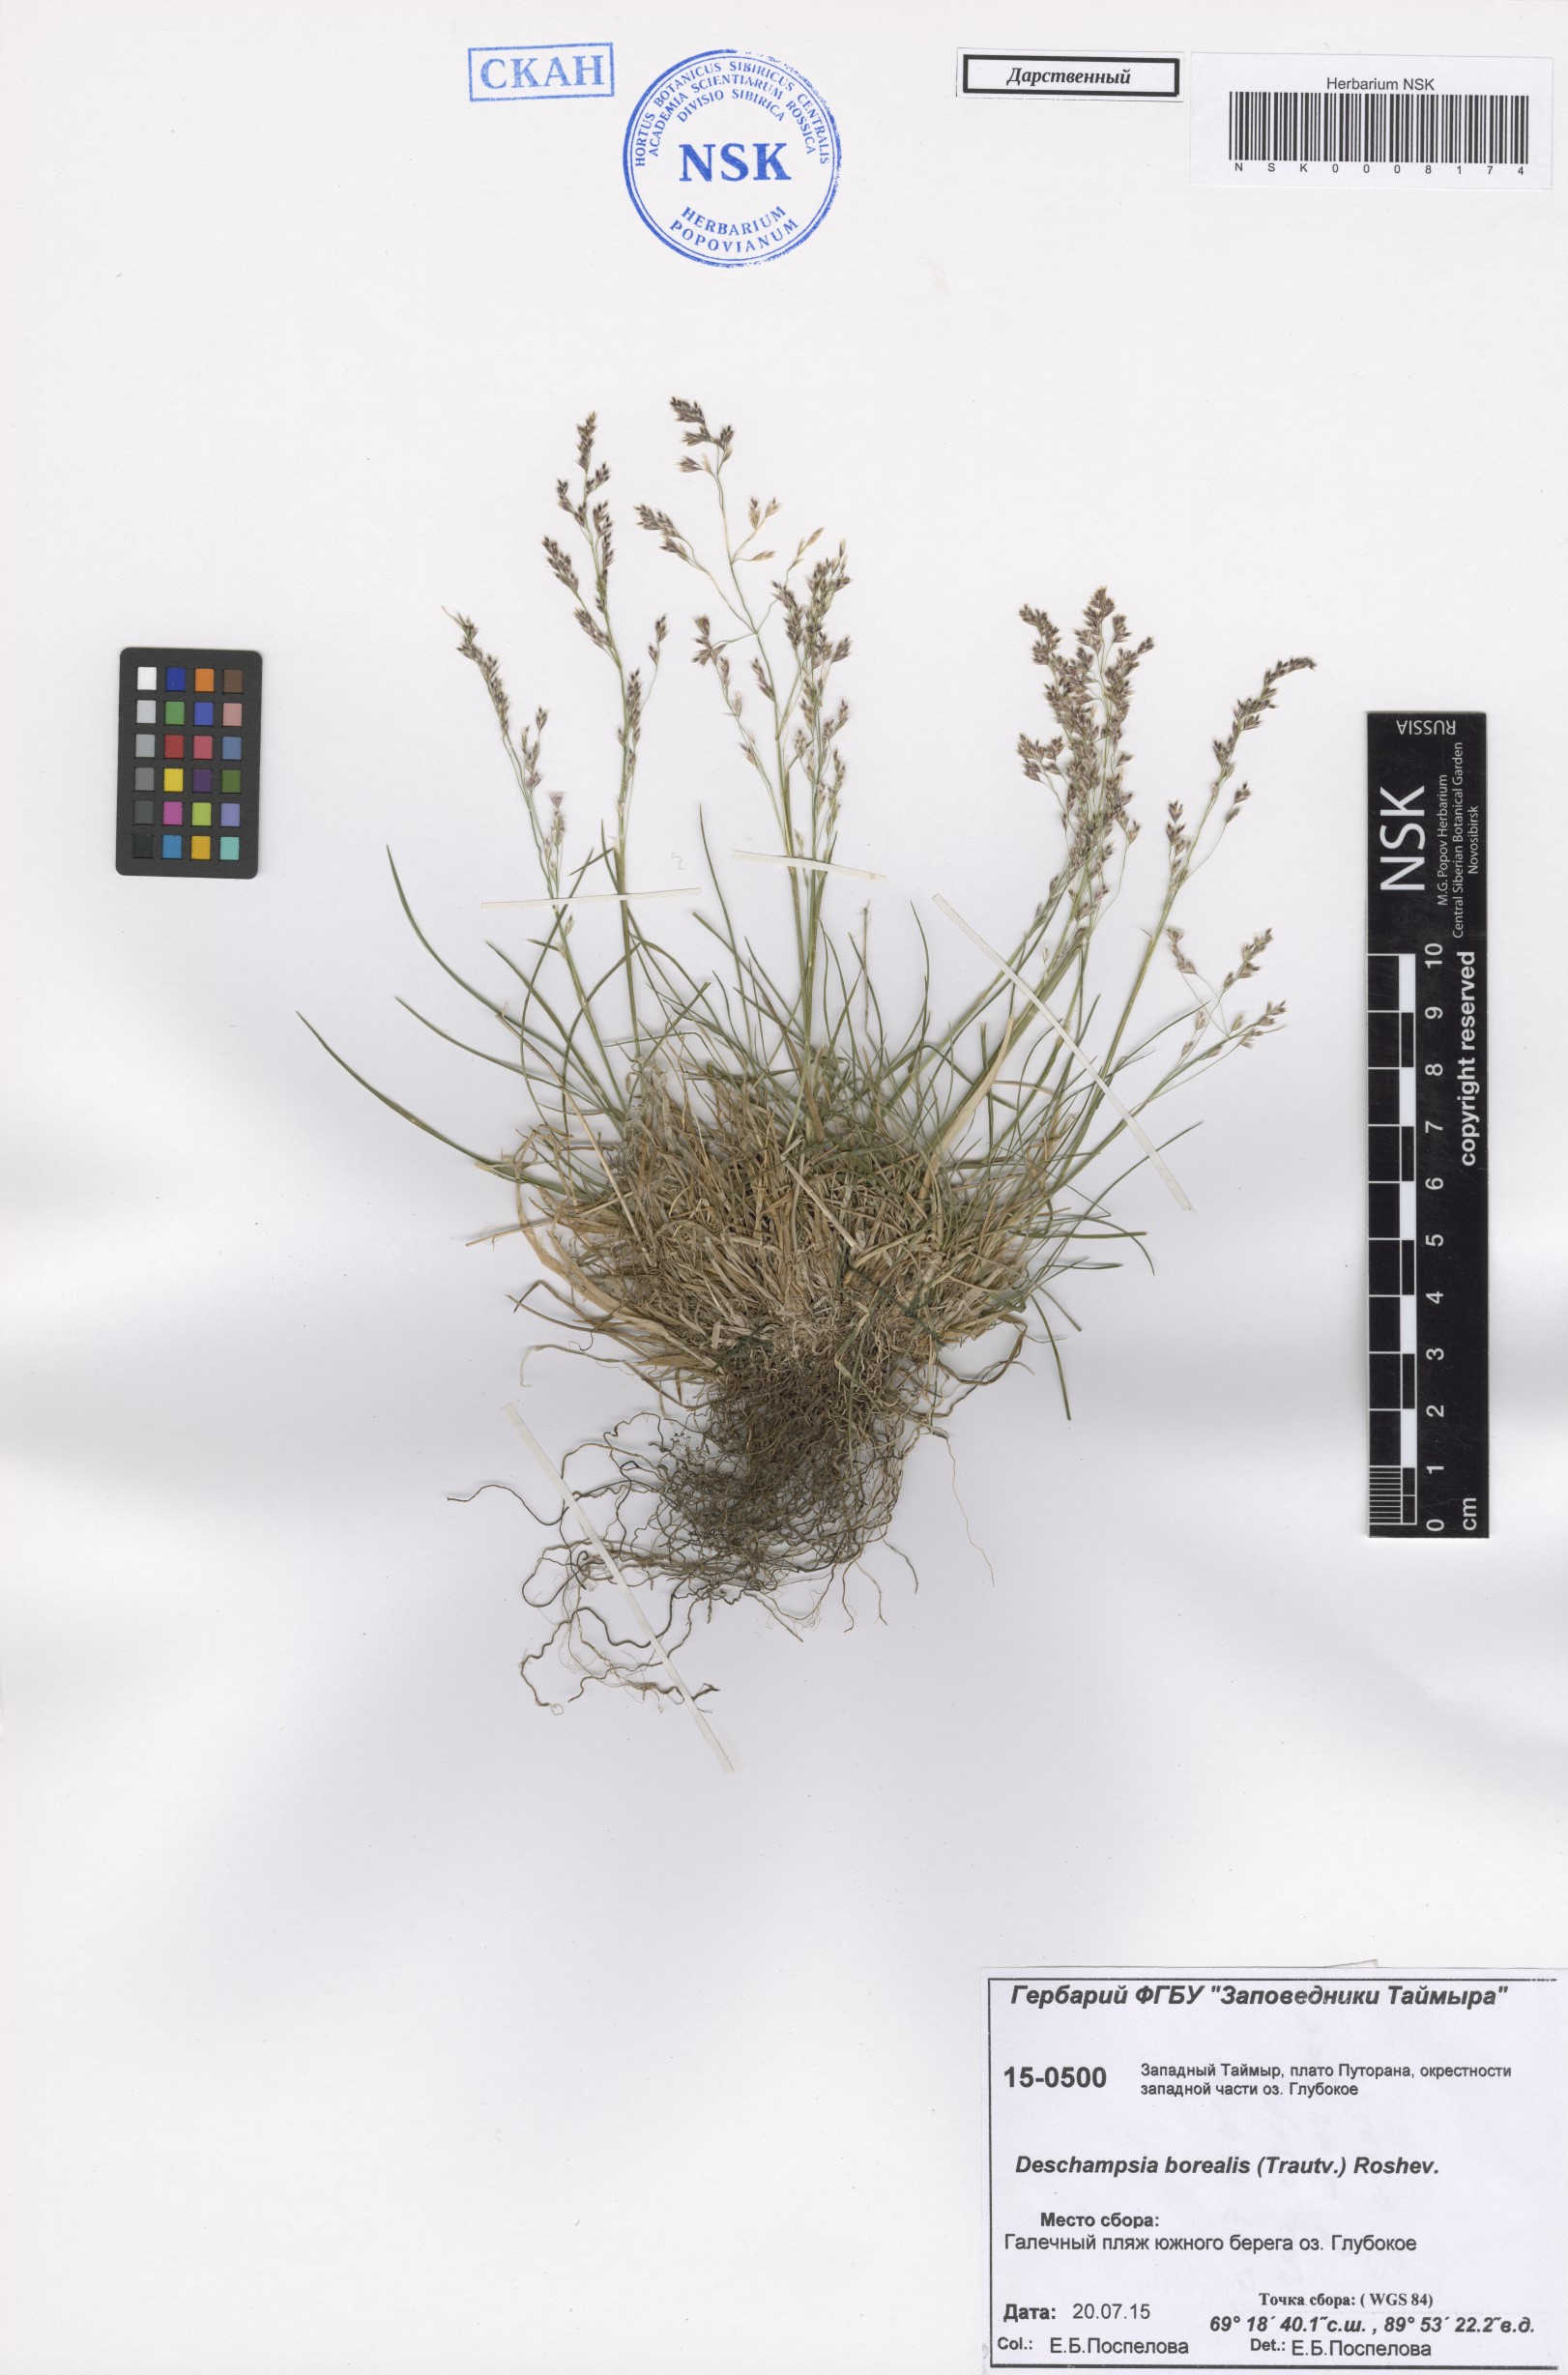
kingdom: Plantae
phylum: Tracheophyta
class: Liliopsida
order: Poales
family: Poaceae
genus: Deschampsia
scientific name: Deschampsia cespitosa
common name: Tufted hair-grass
